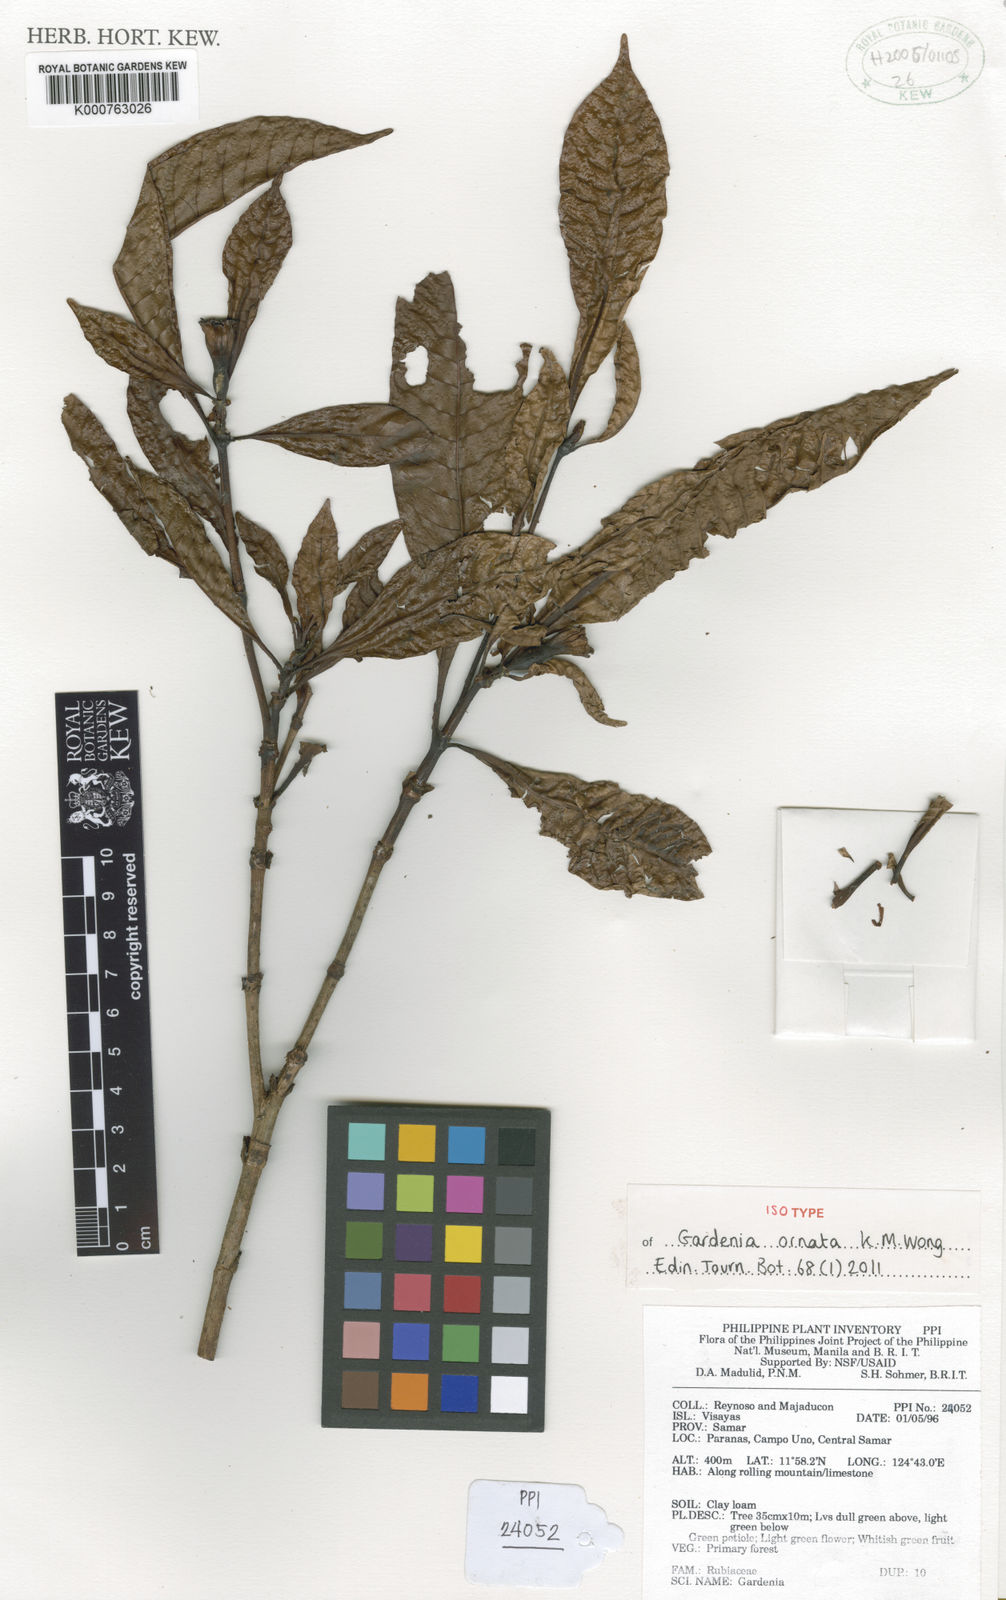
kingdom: Plantae
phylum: Tracheophyta
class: Magnoliopsida
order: Gentianales
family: Rubiaceae
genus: Gardenia
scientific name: Gardenia ornata
